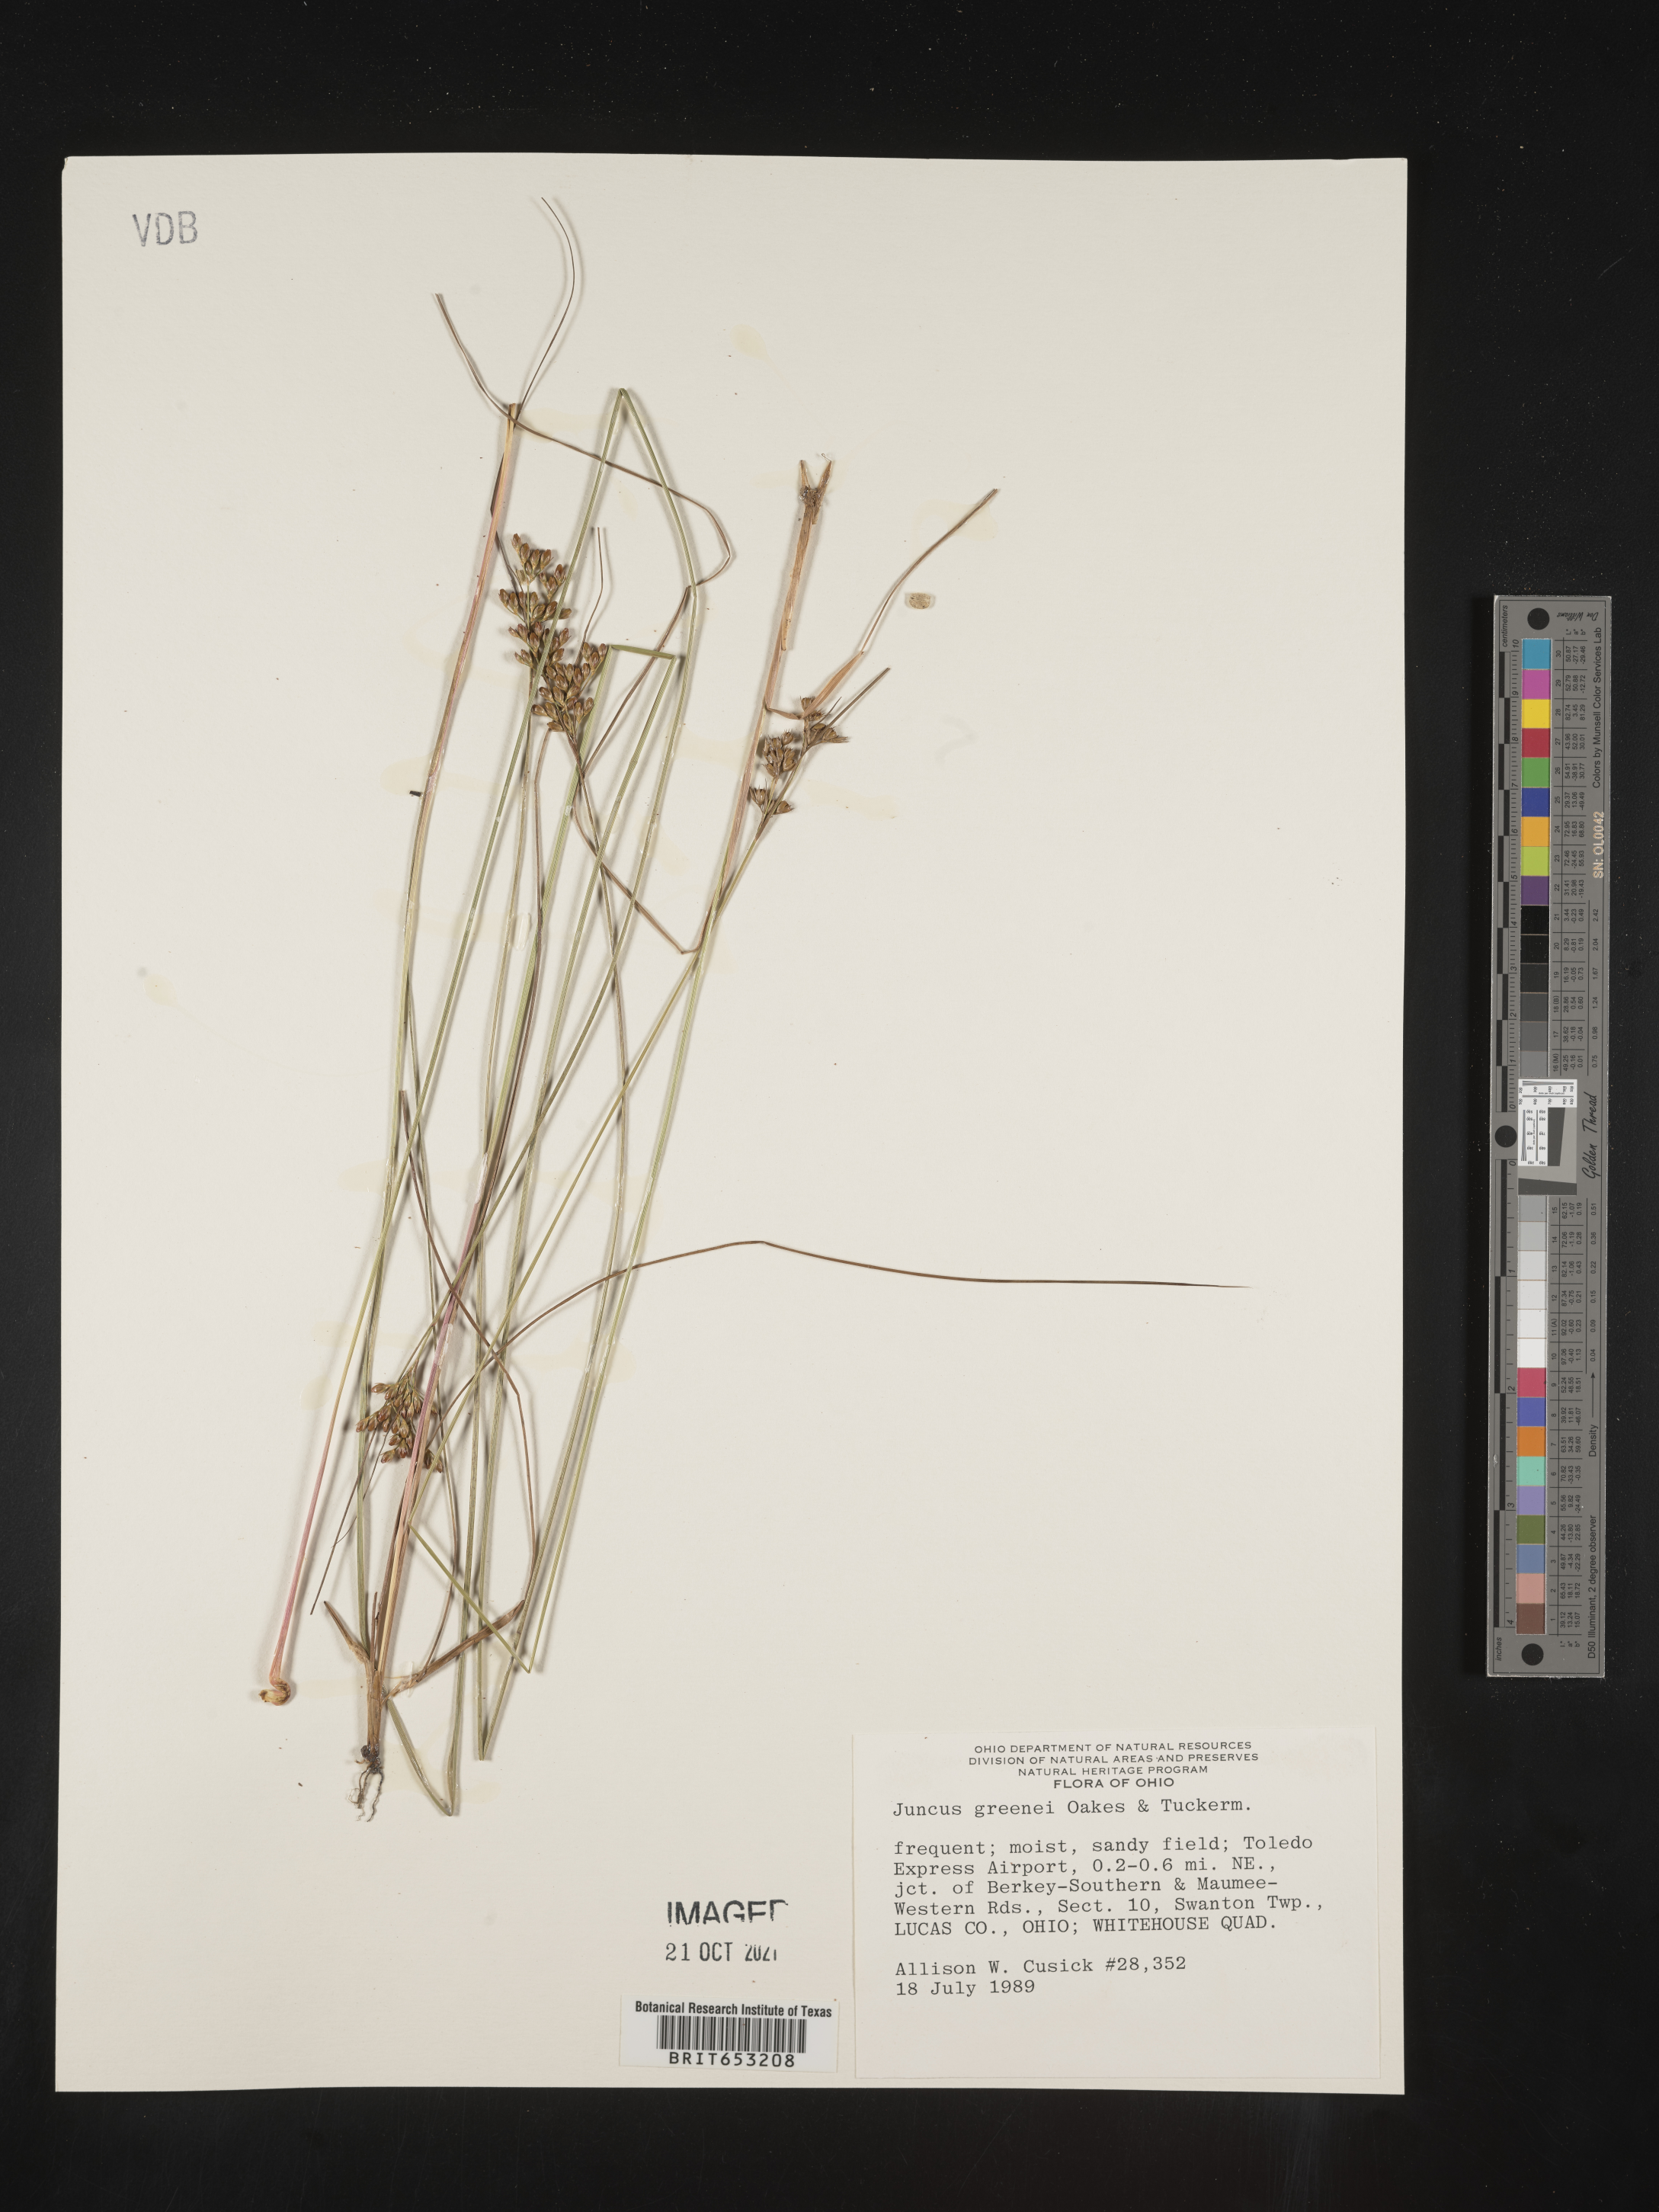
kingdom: Plantae
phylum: Tracheophyta
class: Liliopsida
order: Poales
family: Juncaceae
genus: Juncus
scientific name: Juncus greenei
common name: Greene's rush
